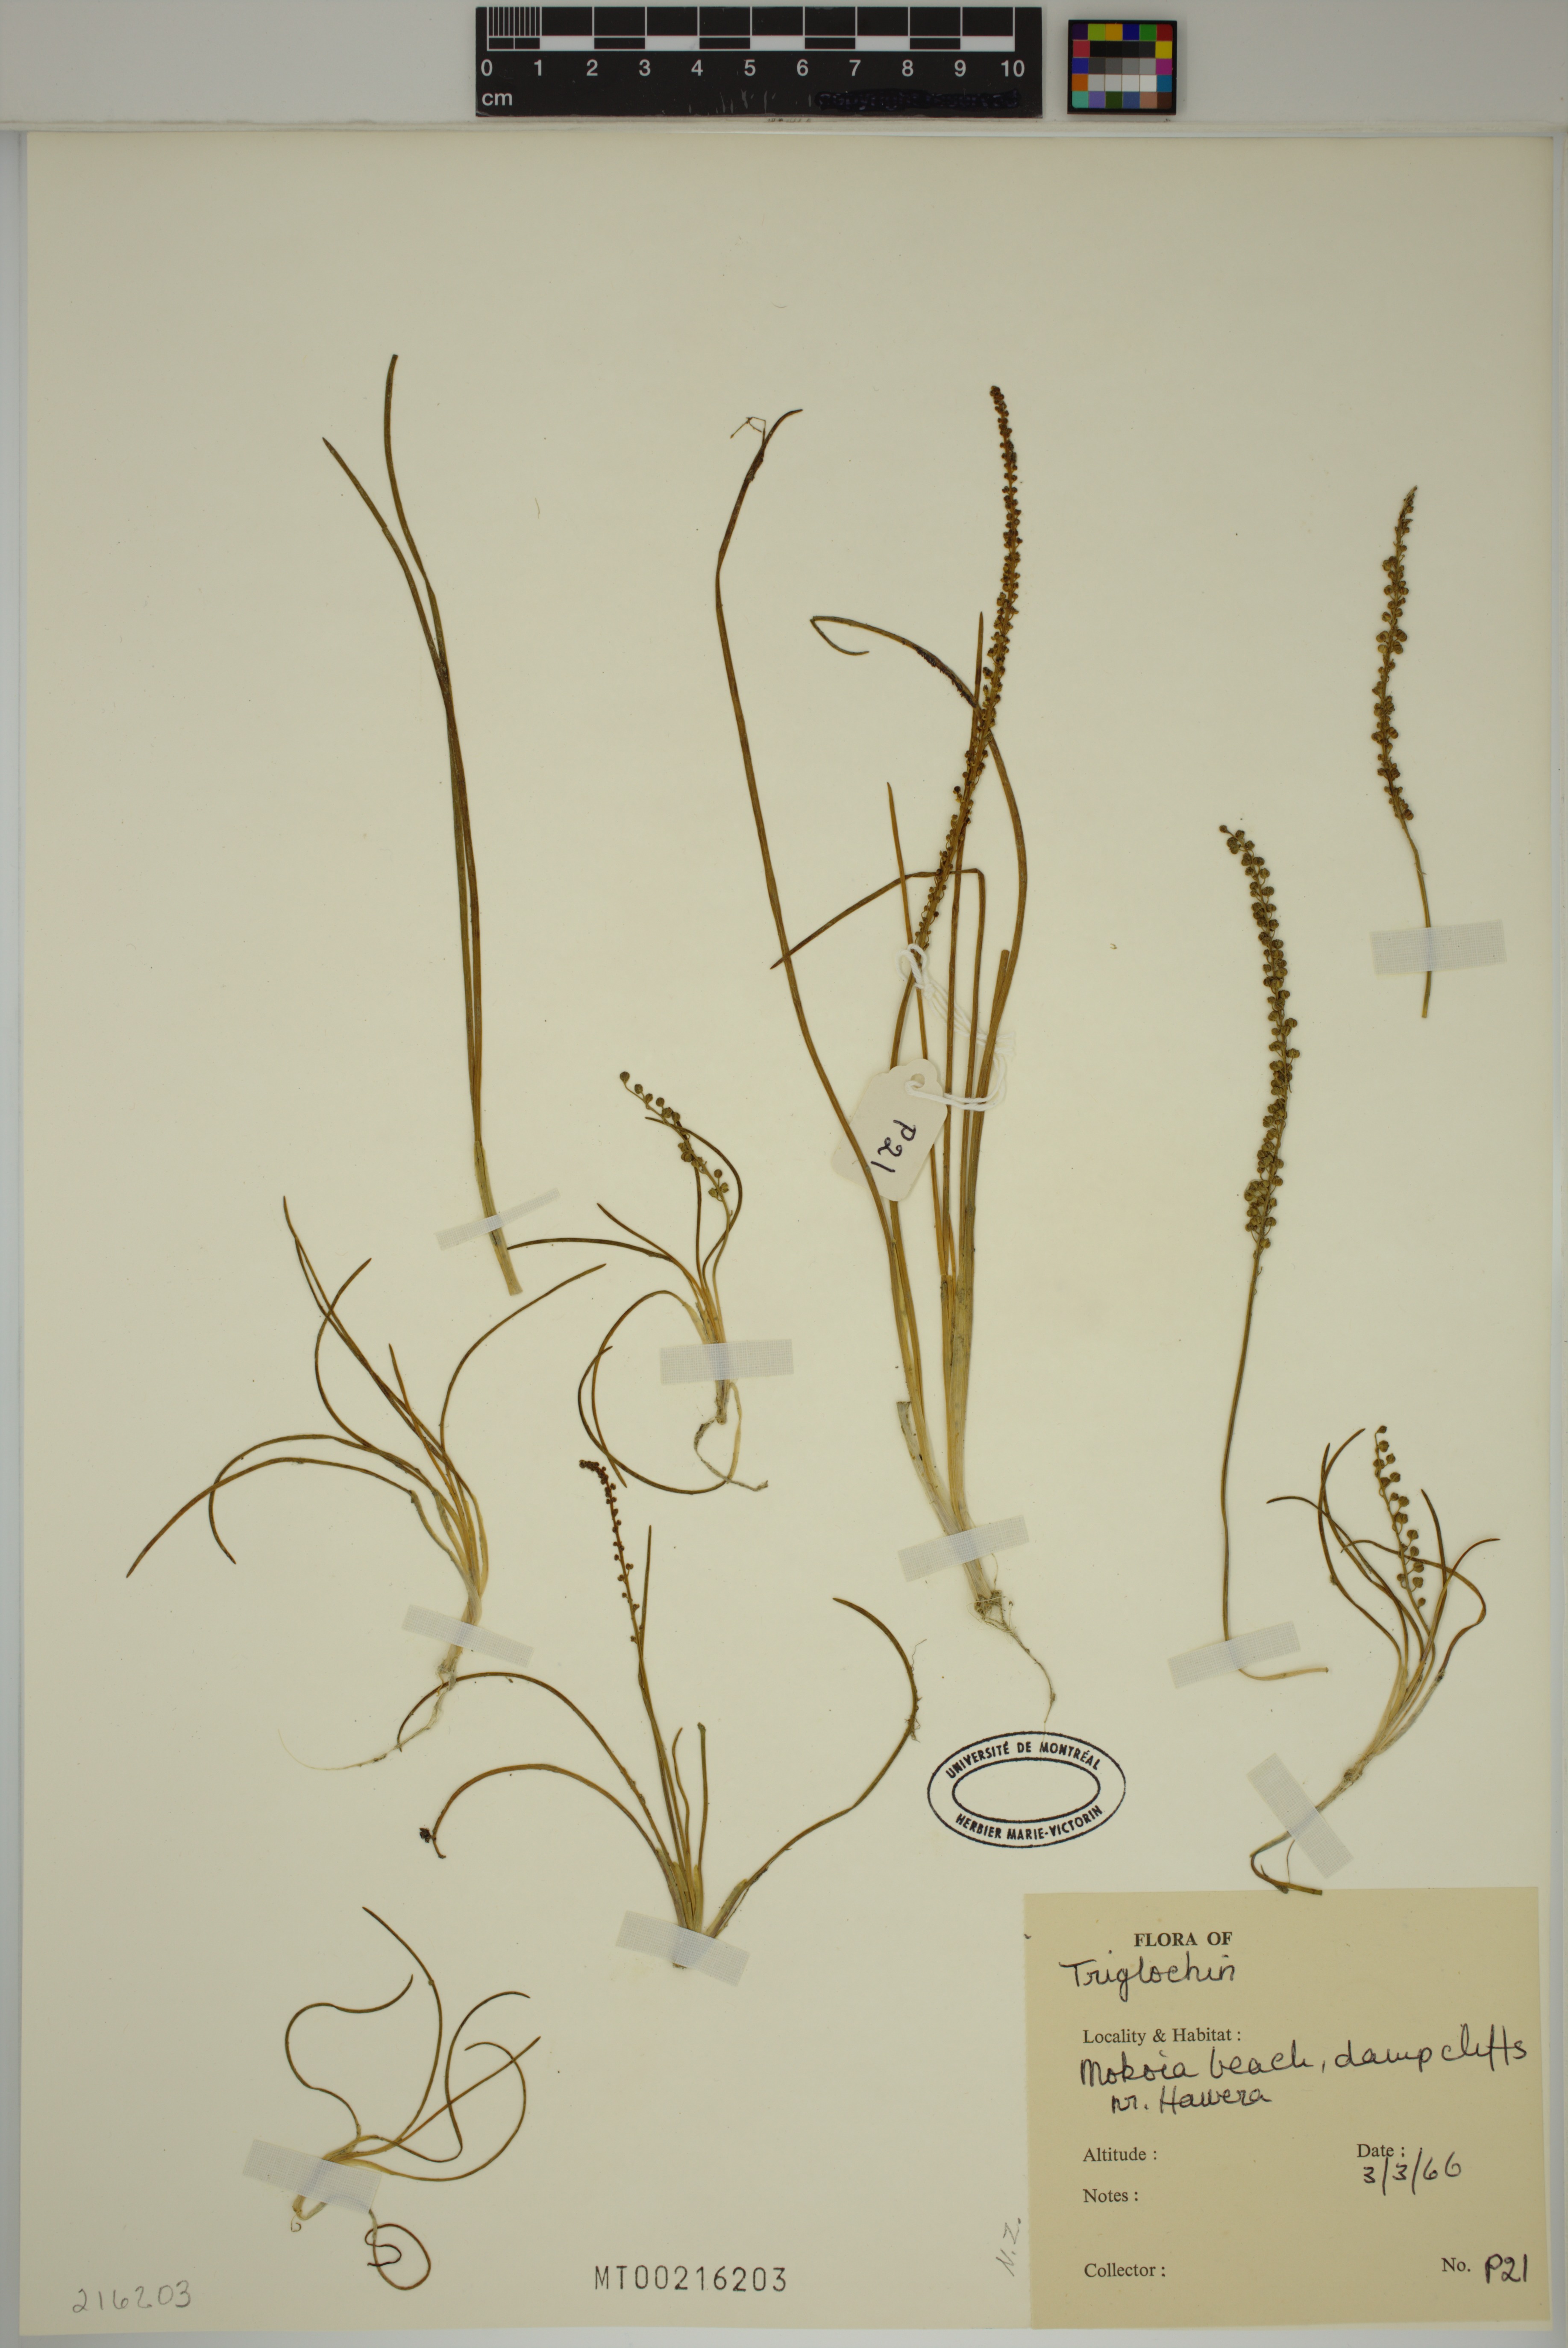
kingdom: Plantae
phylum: Tracheophyta
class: Liliopsida
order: Alismatales
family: Juncaginaceae
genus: Triglochin
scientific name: Triglochin
